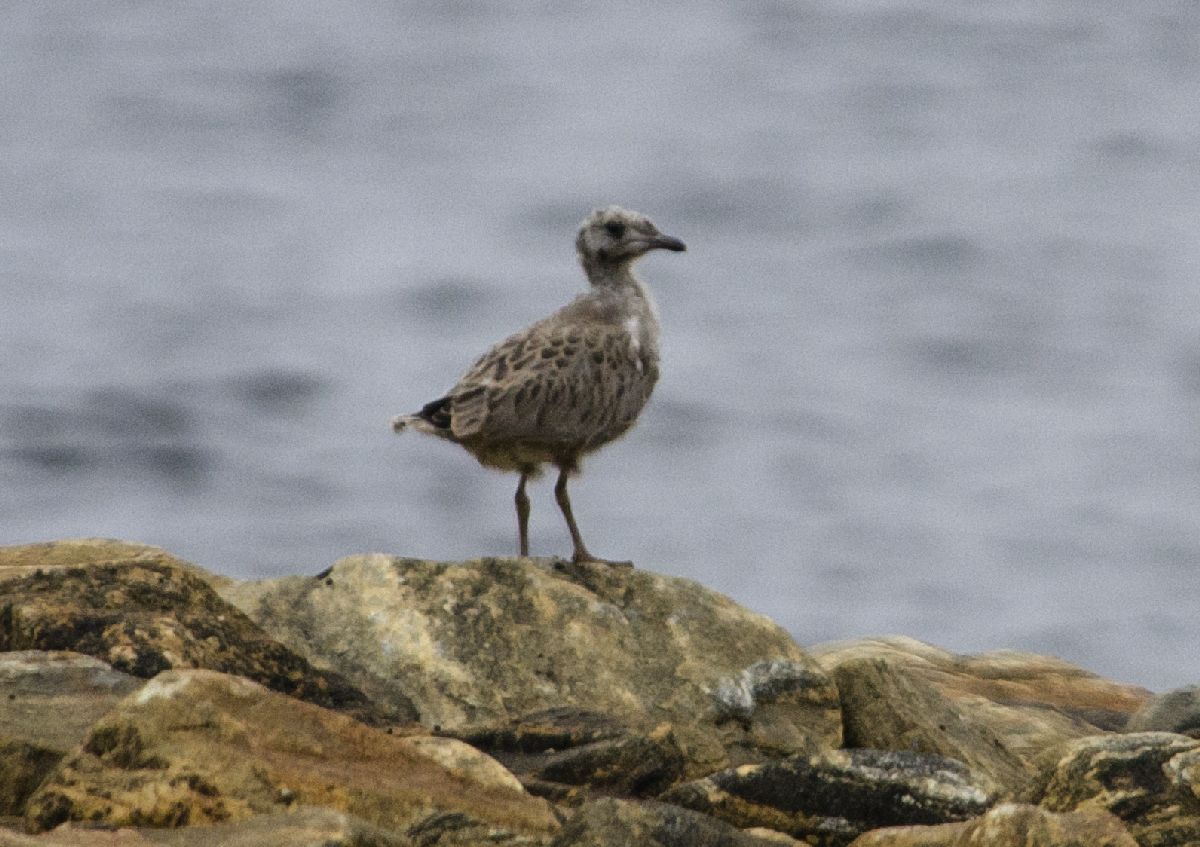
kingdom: Animalia
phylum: Chordata
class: Aves
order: Charadriiformes
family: Laridae
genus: Larus
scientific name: Larus canus
